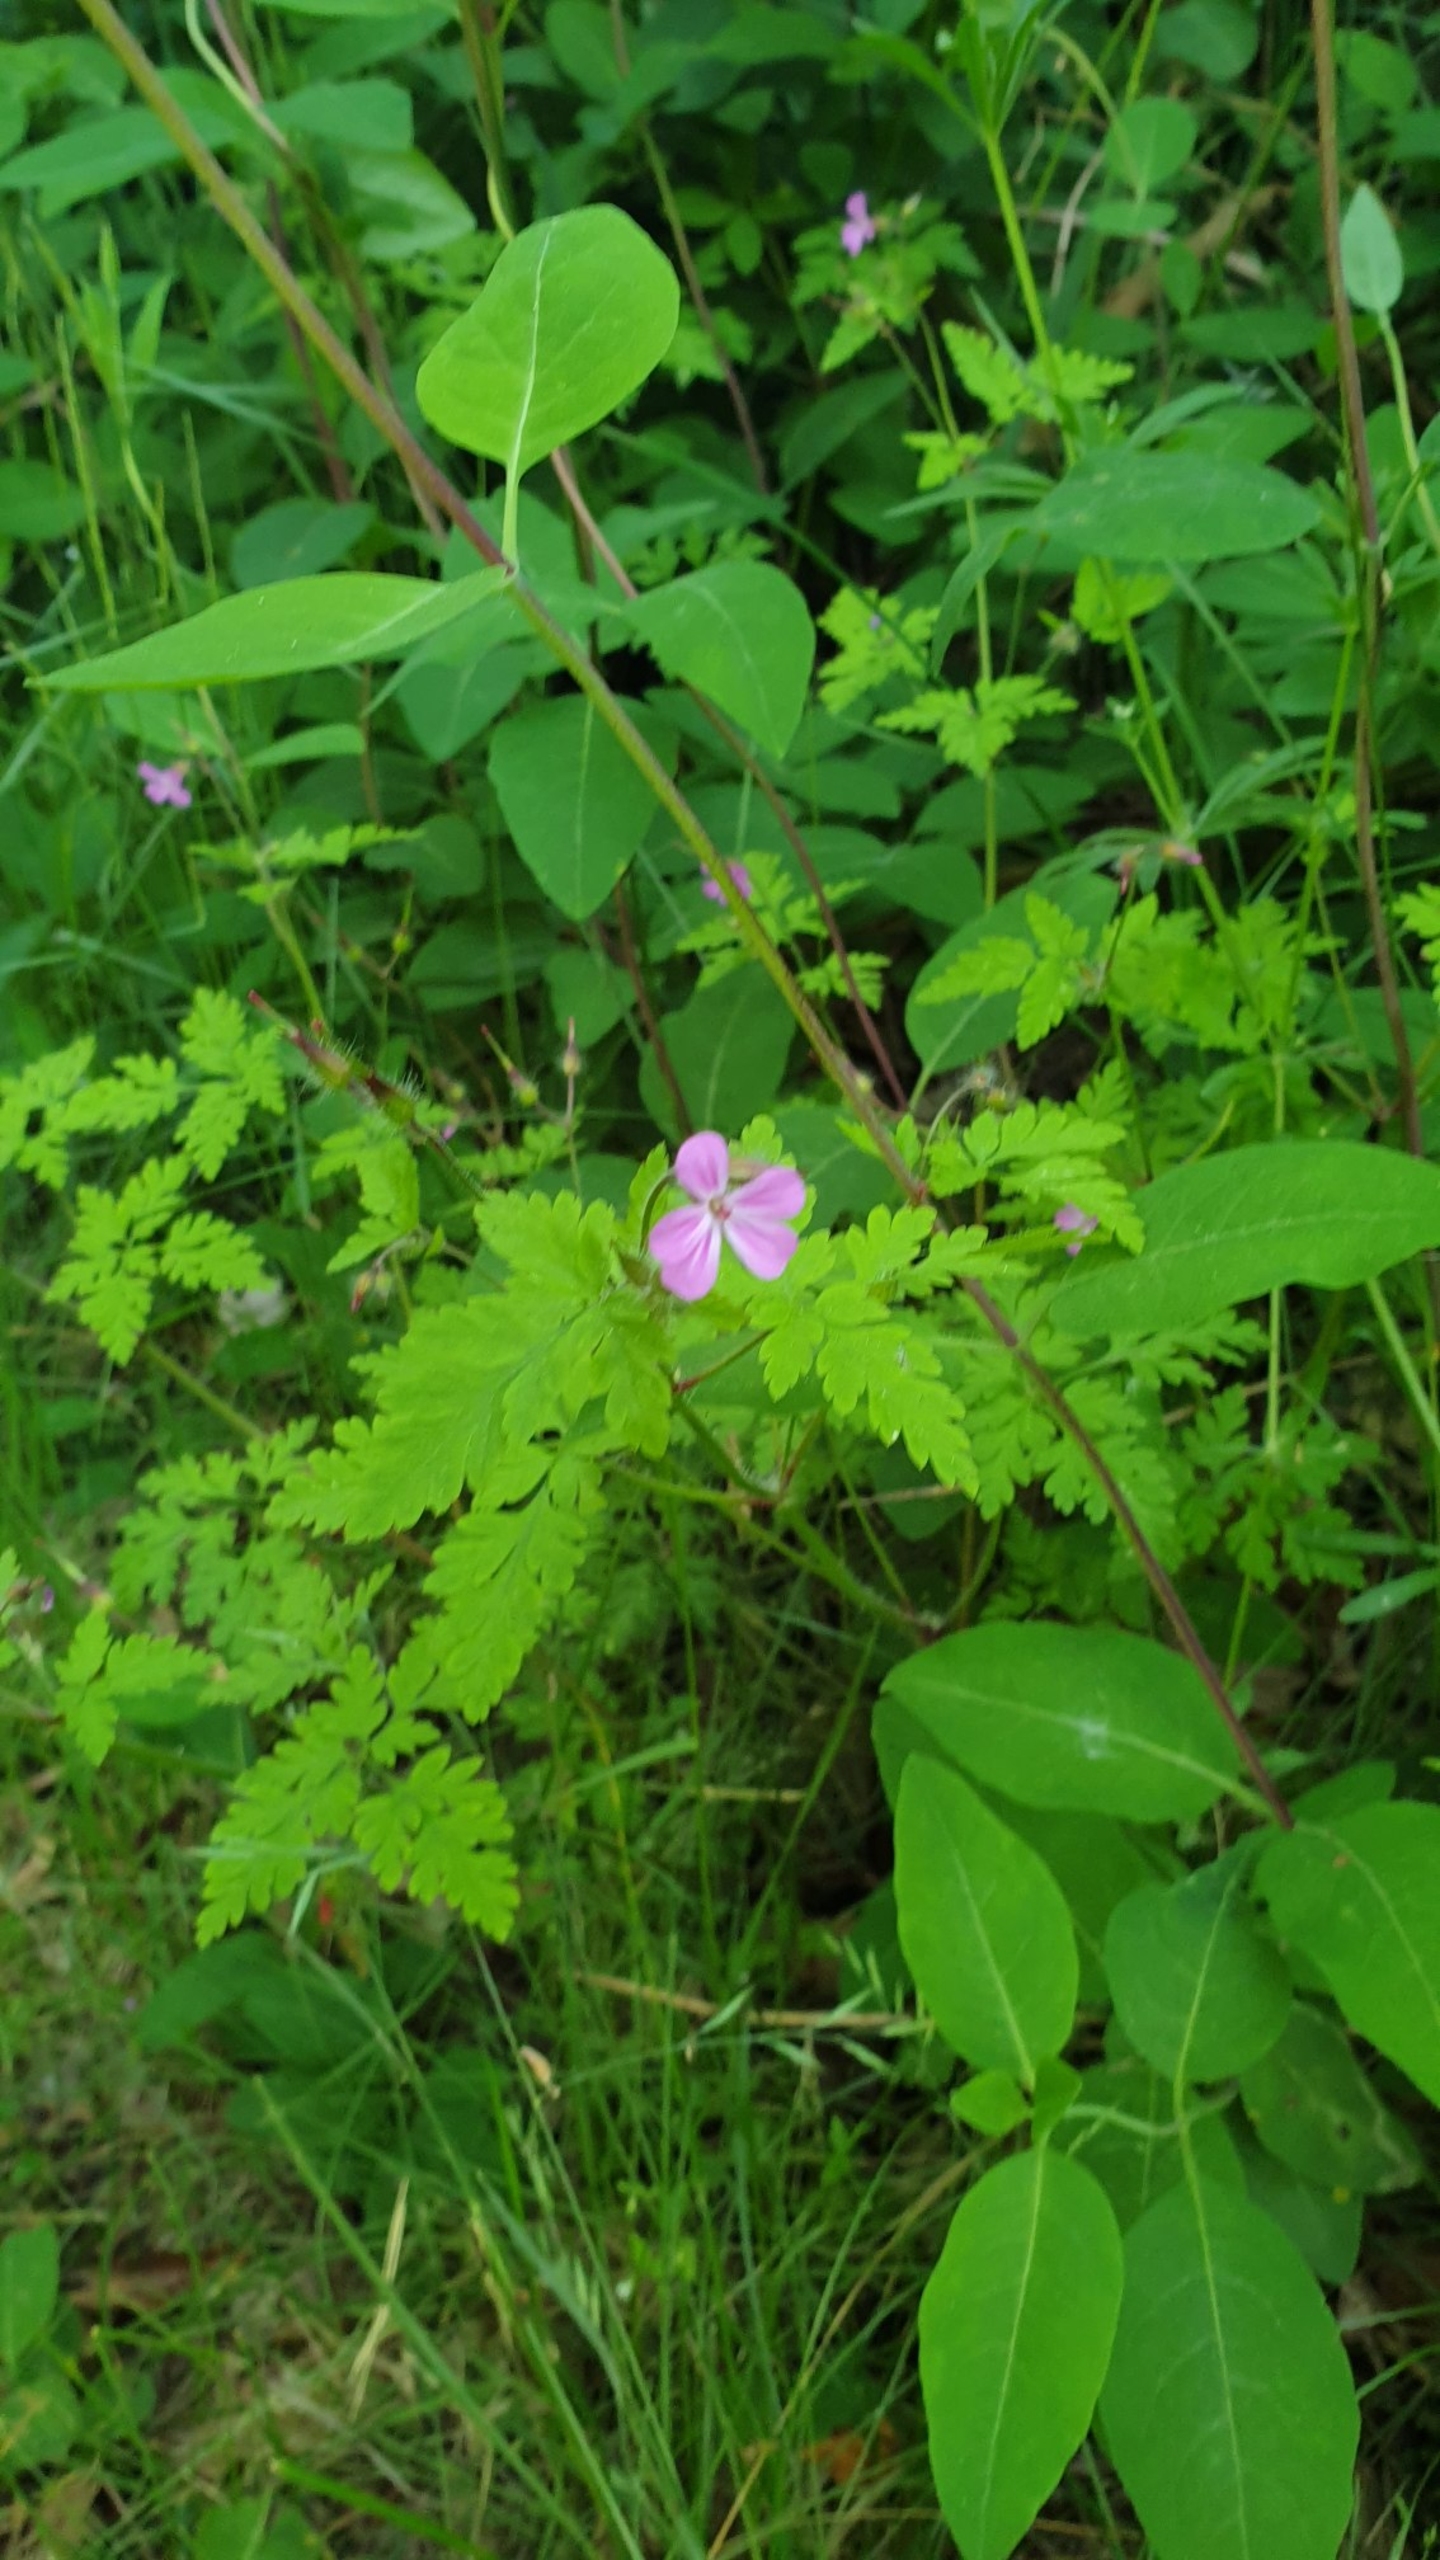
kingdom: Plantae
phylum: Tracheophyta
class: Magnoliopsida
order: Geraniales
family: Geraniaceae
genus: Geranium
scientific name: Geranium robertianum
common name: Stinkende storkenæb
